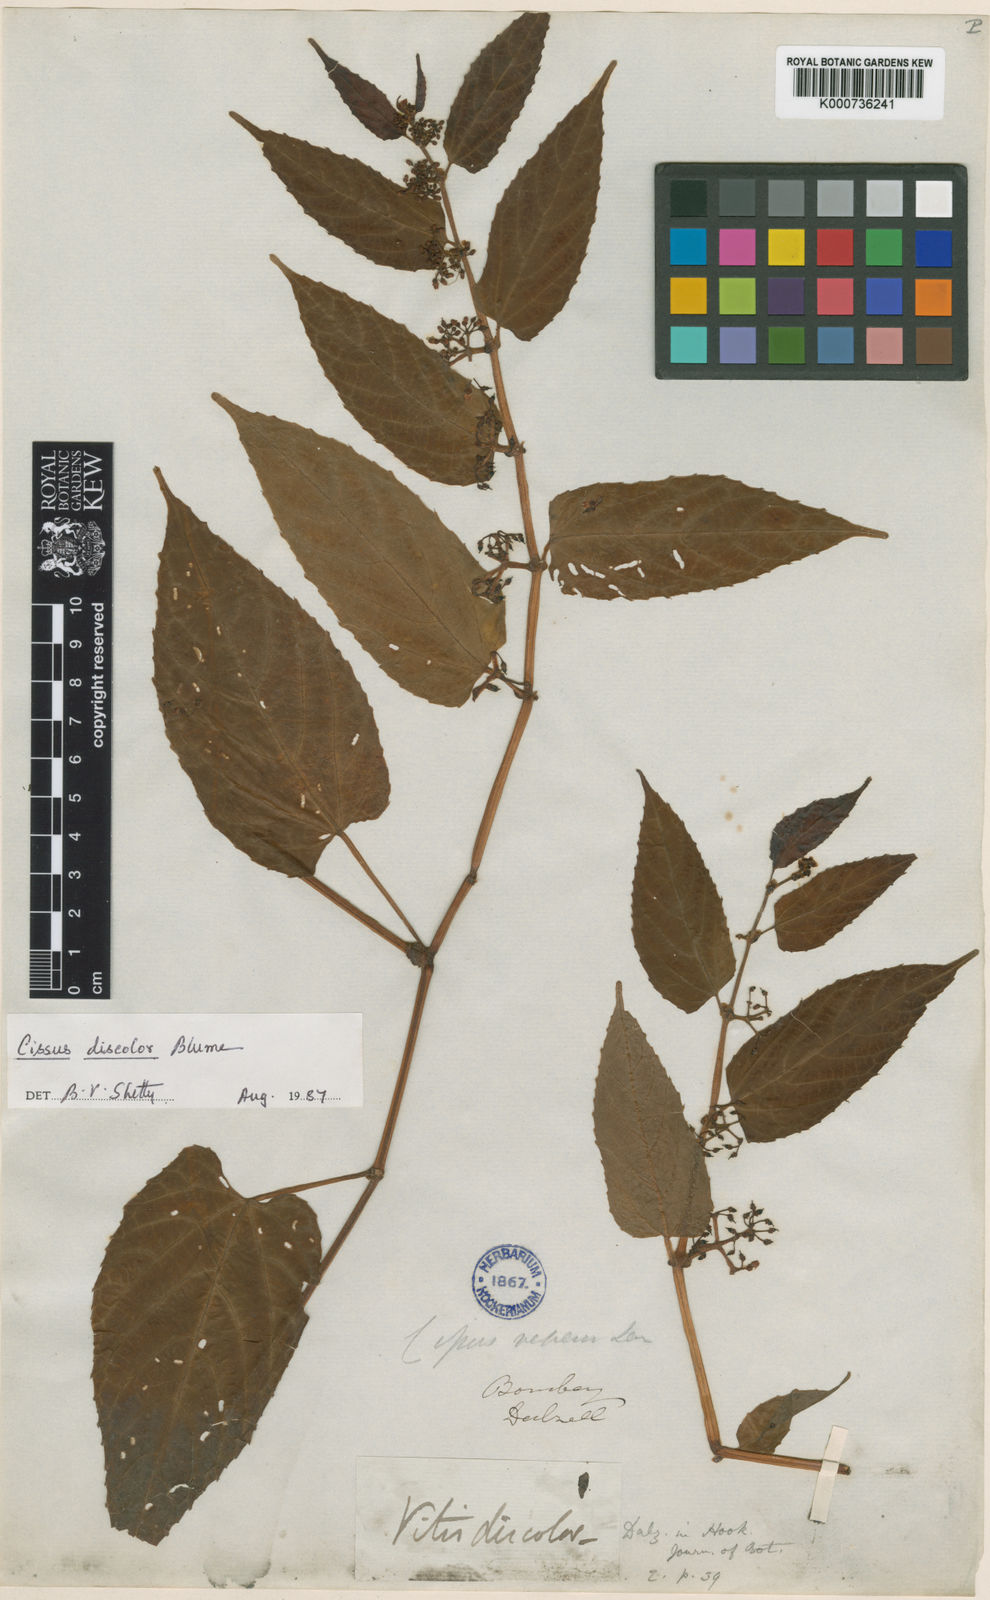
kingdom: Plantae
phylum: Tracheophyta
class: Magnoliopsida
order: Vitales
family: Vitaceae
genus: Cissus
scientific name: Cissus discolor
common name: Climbing-begonia
